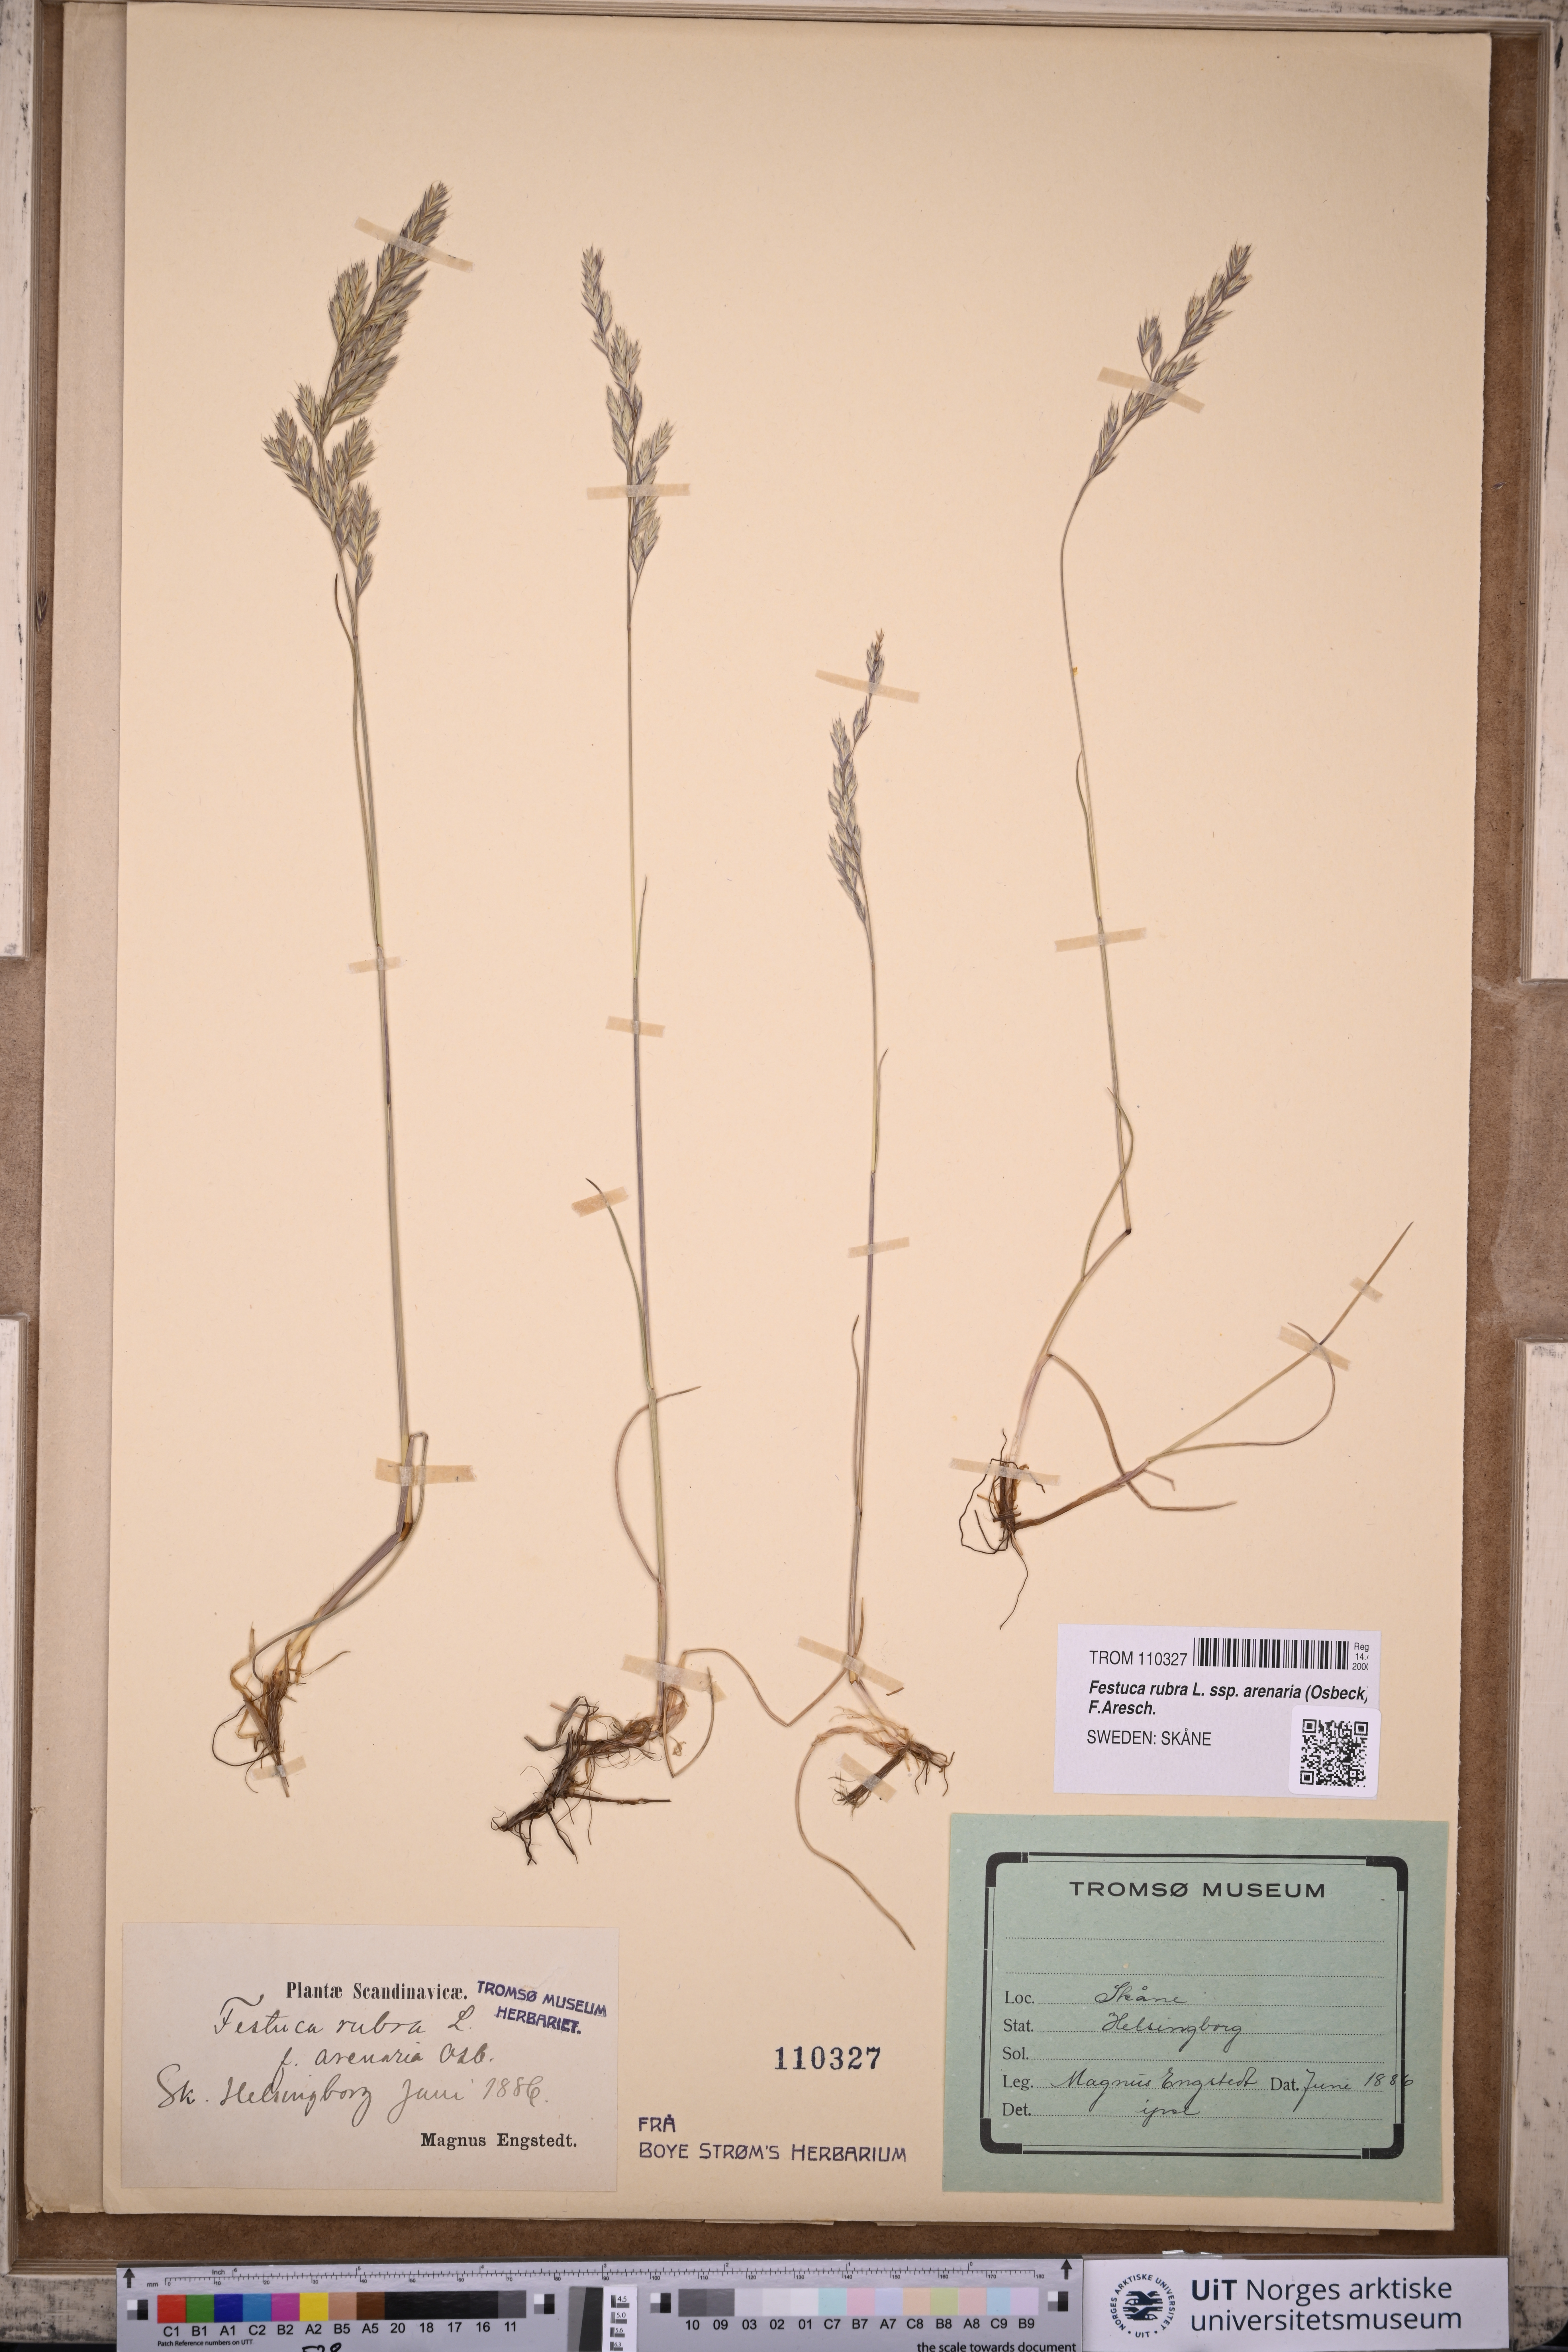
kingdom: Plantae
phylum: Tracheophyta
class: Liliopsida
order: Poales
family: Poaceae
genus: Festuca
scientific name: Festuca rubra
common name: Red fescue
